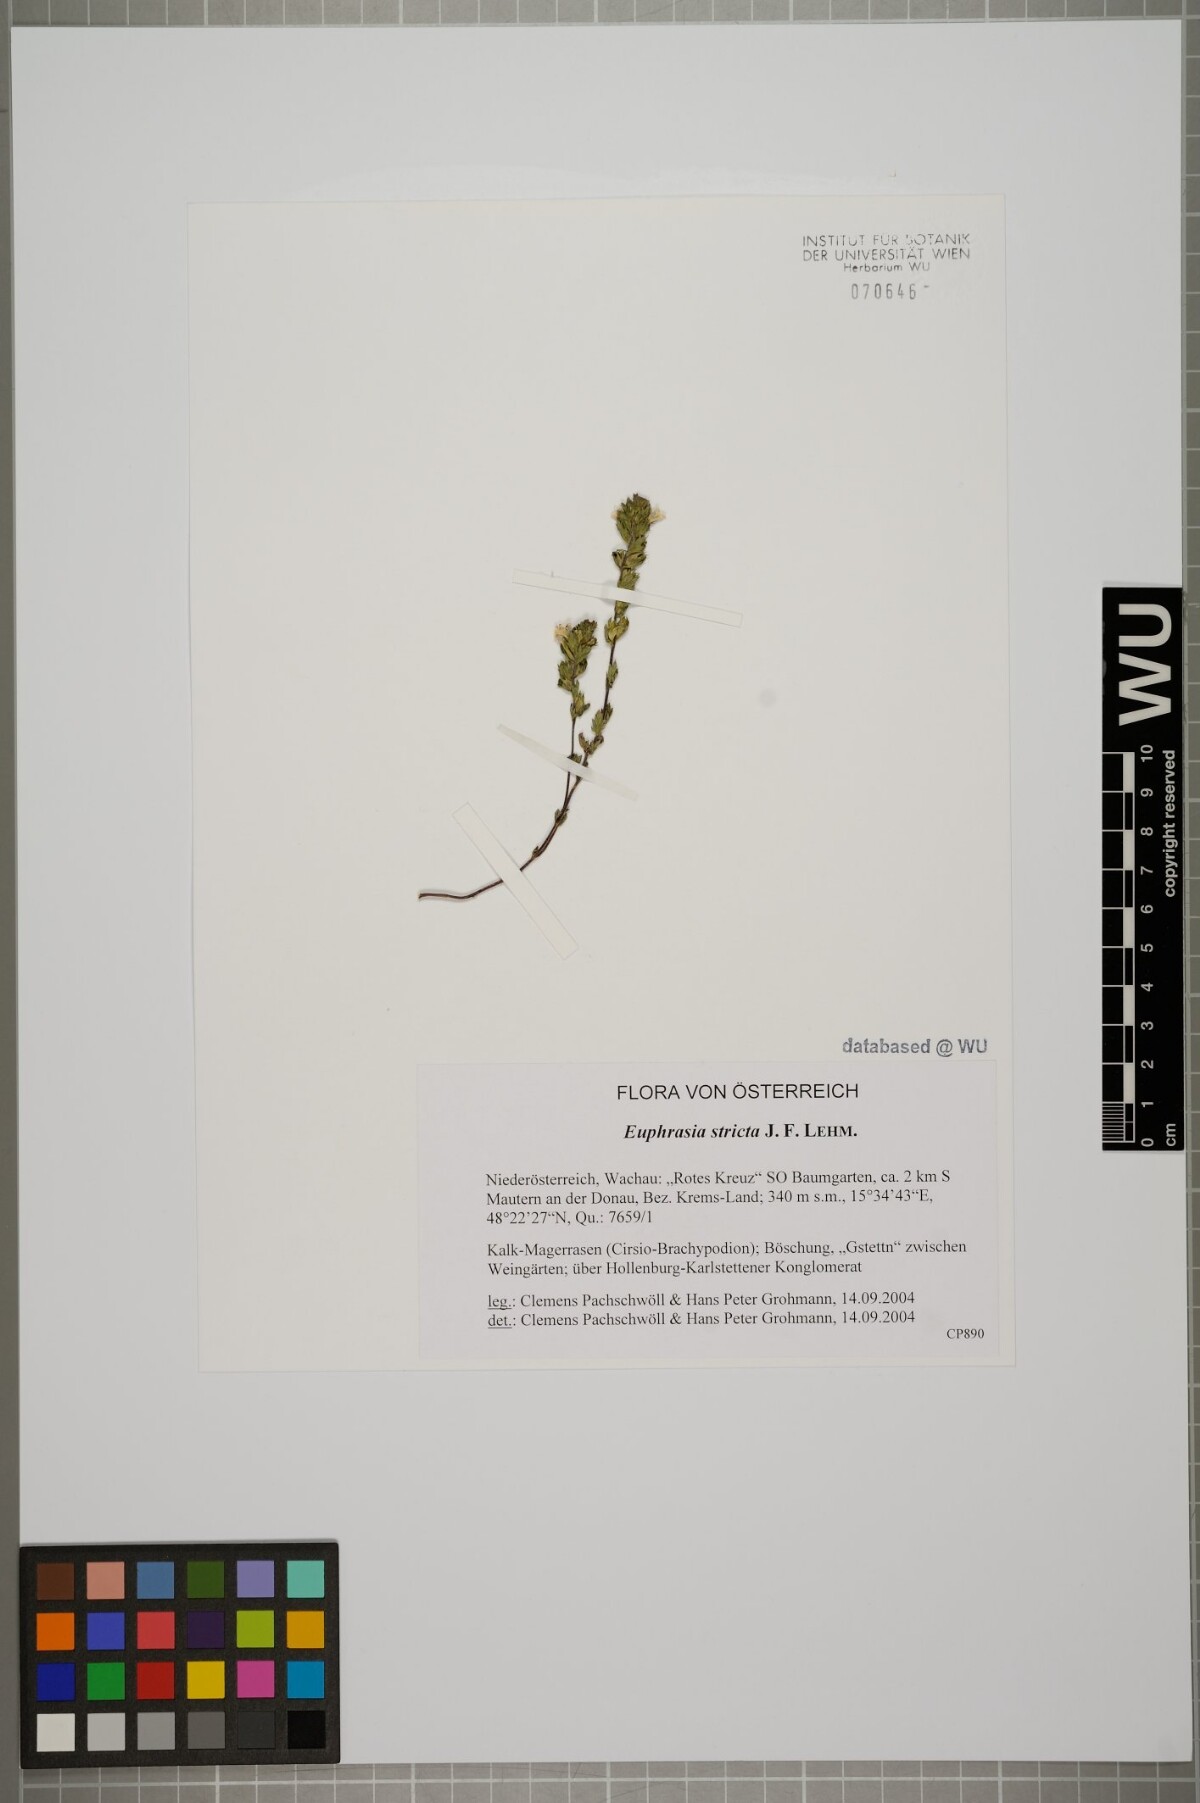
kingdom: Plantae
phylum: Tracheophyta
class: Magnoliopsida
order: Lamiales
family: Orobanchaceae
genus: Euphrasia
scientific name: Euphrasia stricta
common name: Drug eyebright
